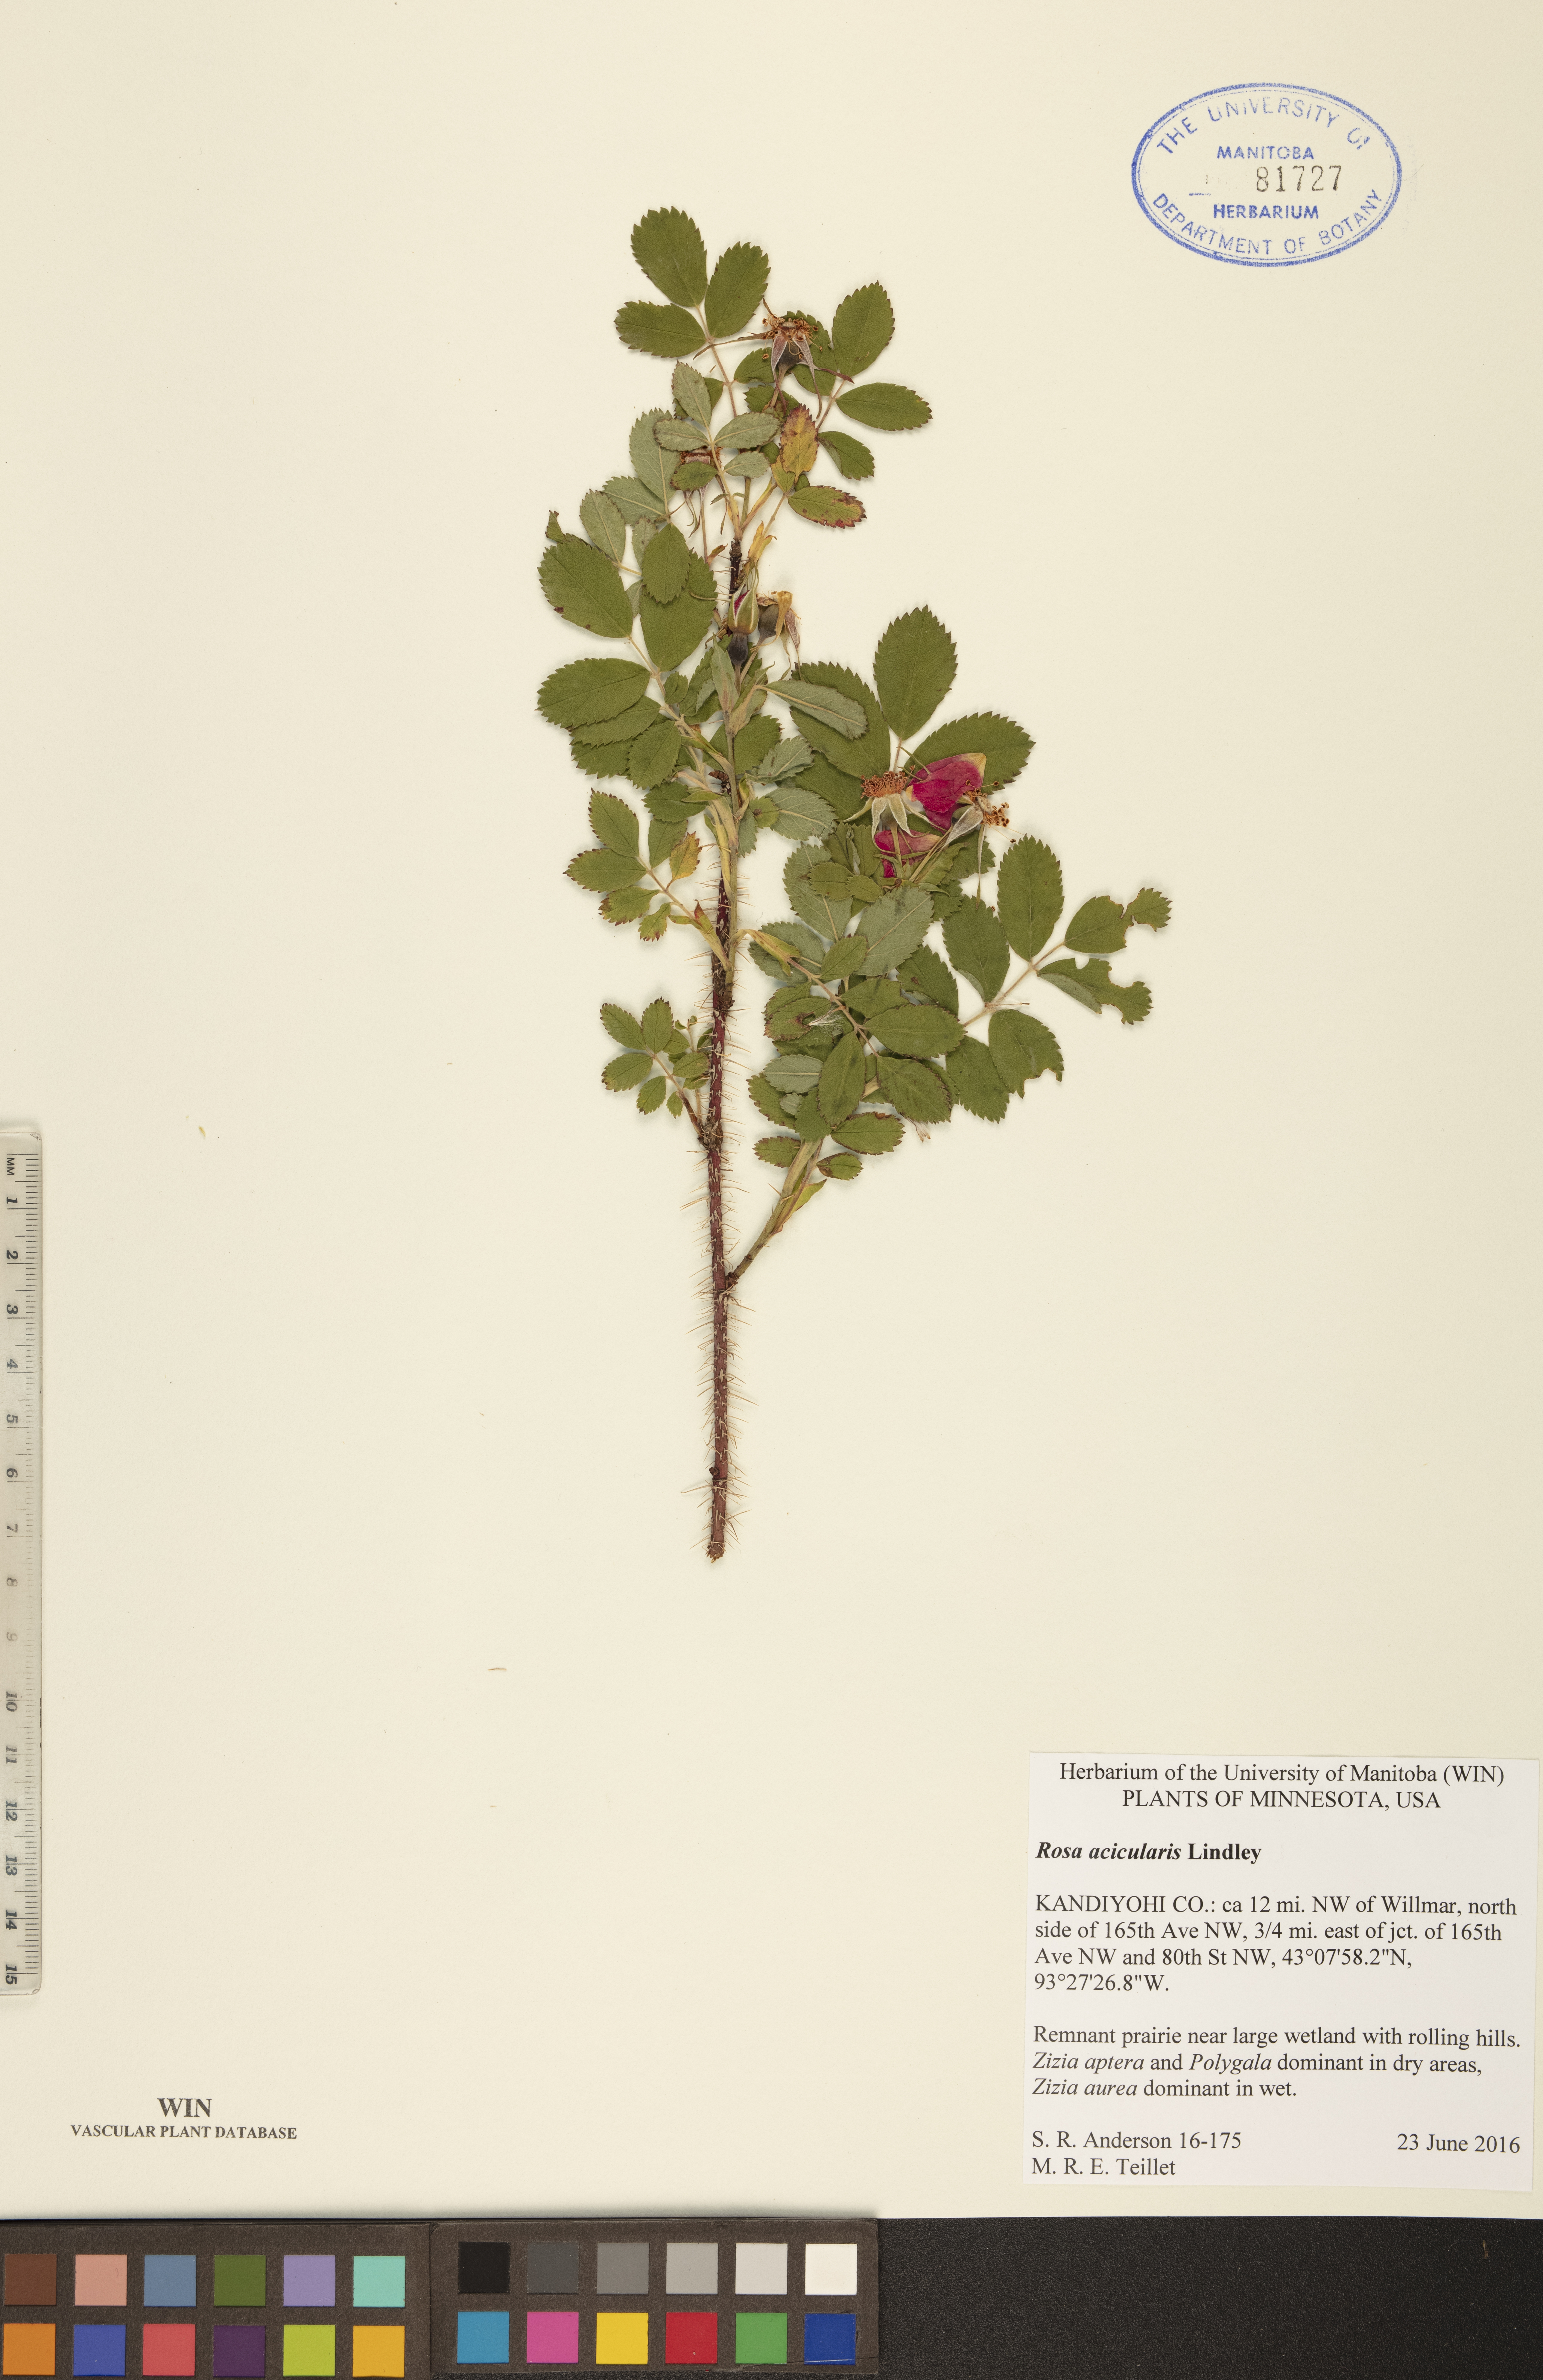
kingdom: Plantae
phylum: Tracheophyta
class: Magnoliopsida
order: Rosales
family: Rosaceae
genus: Rosa
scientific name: Rosa acicularis
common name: Prickly rose
